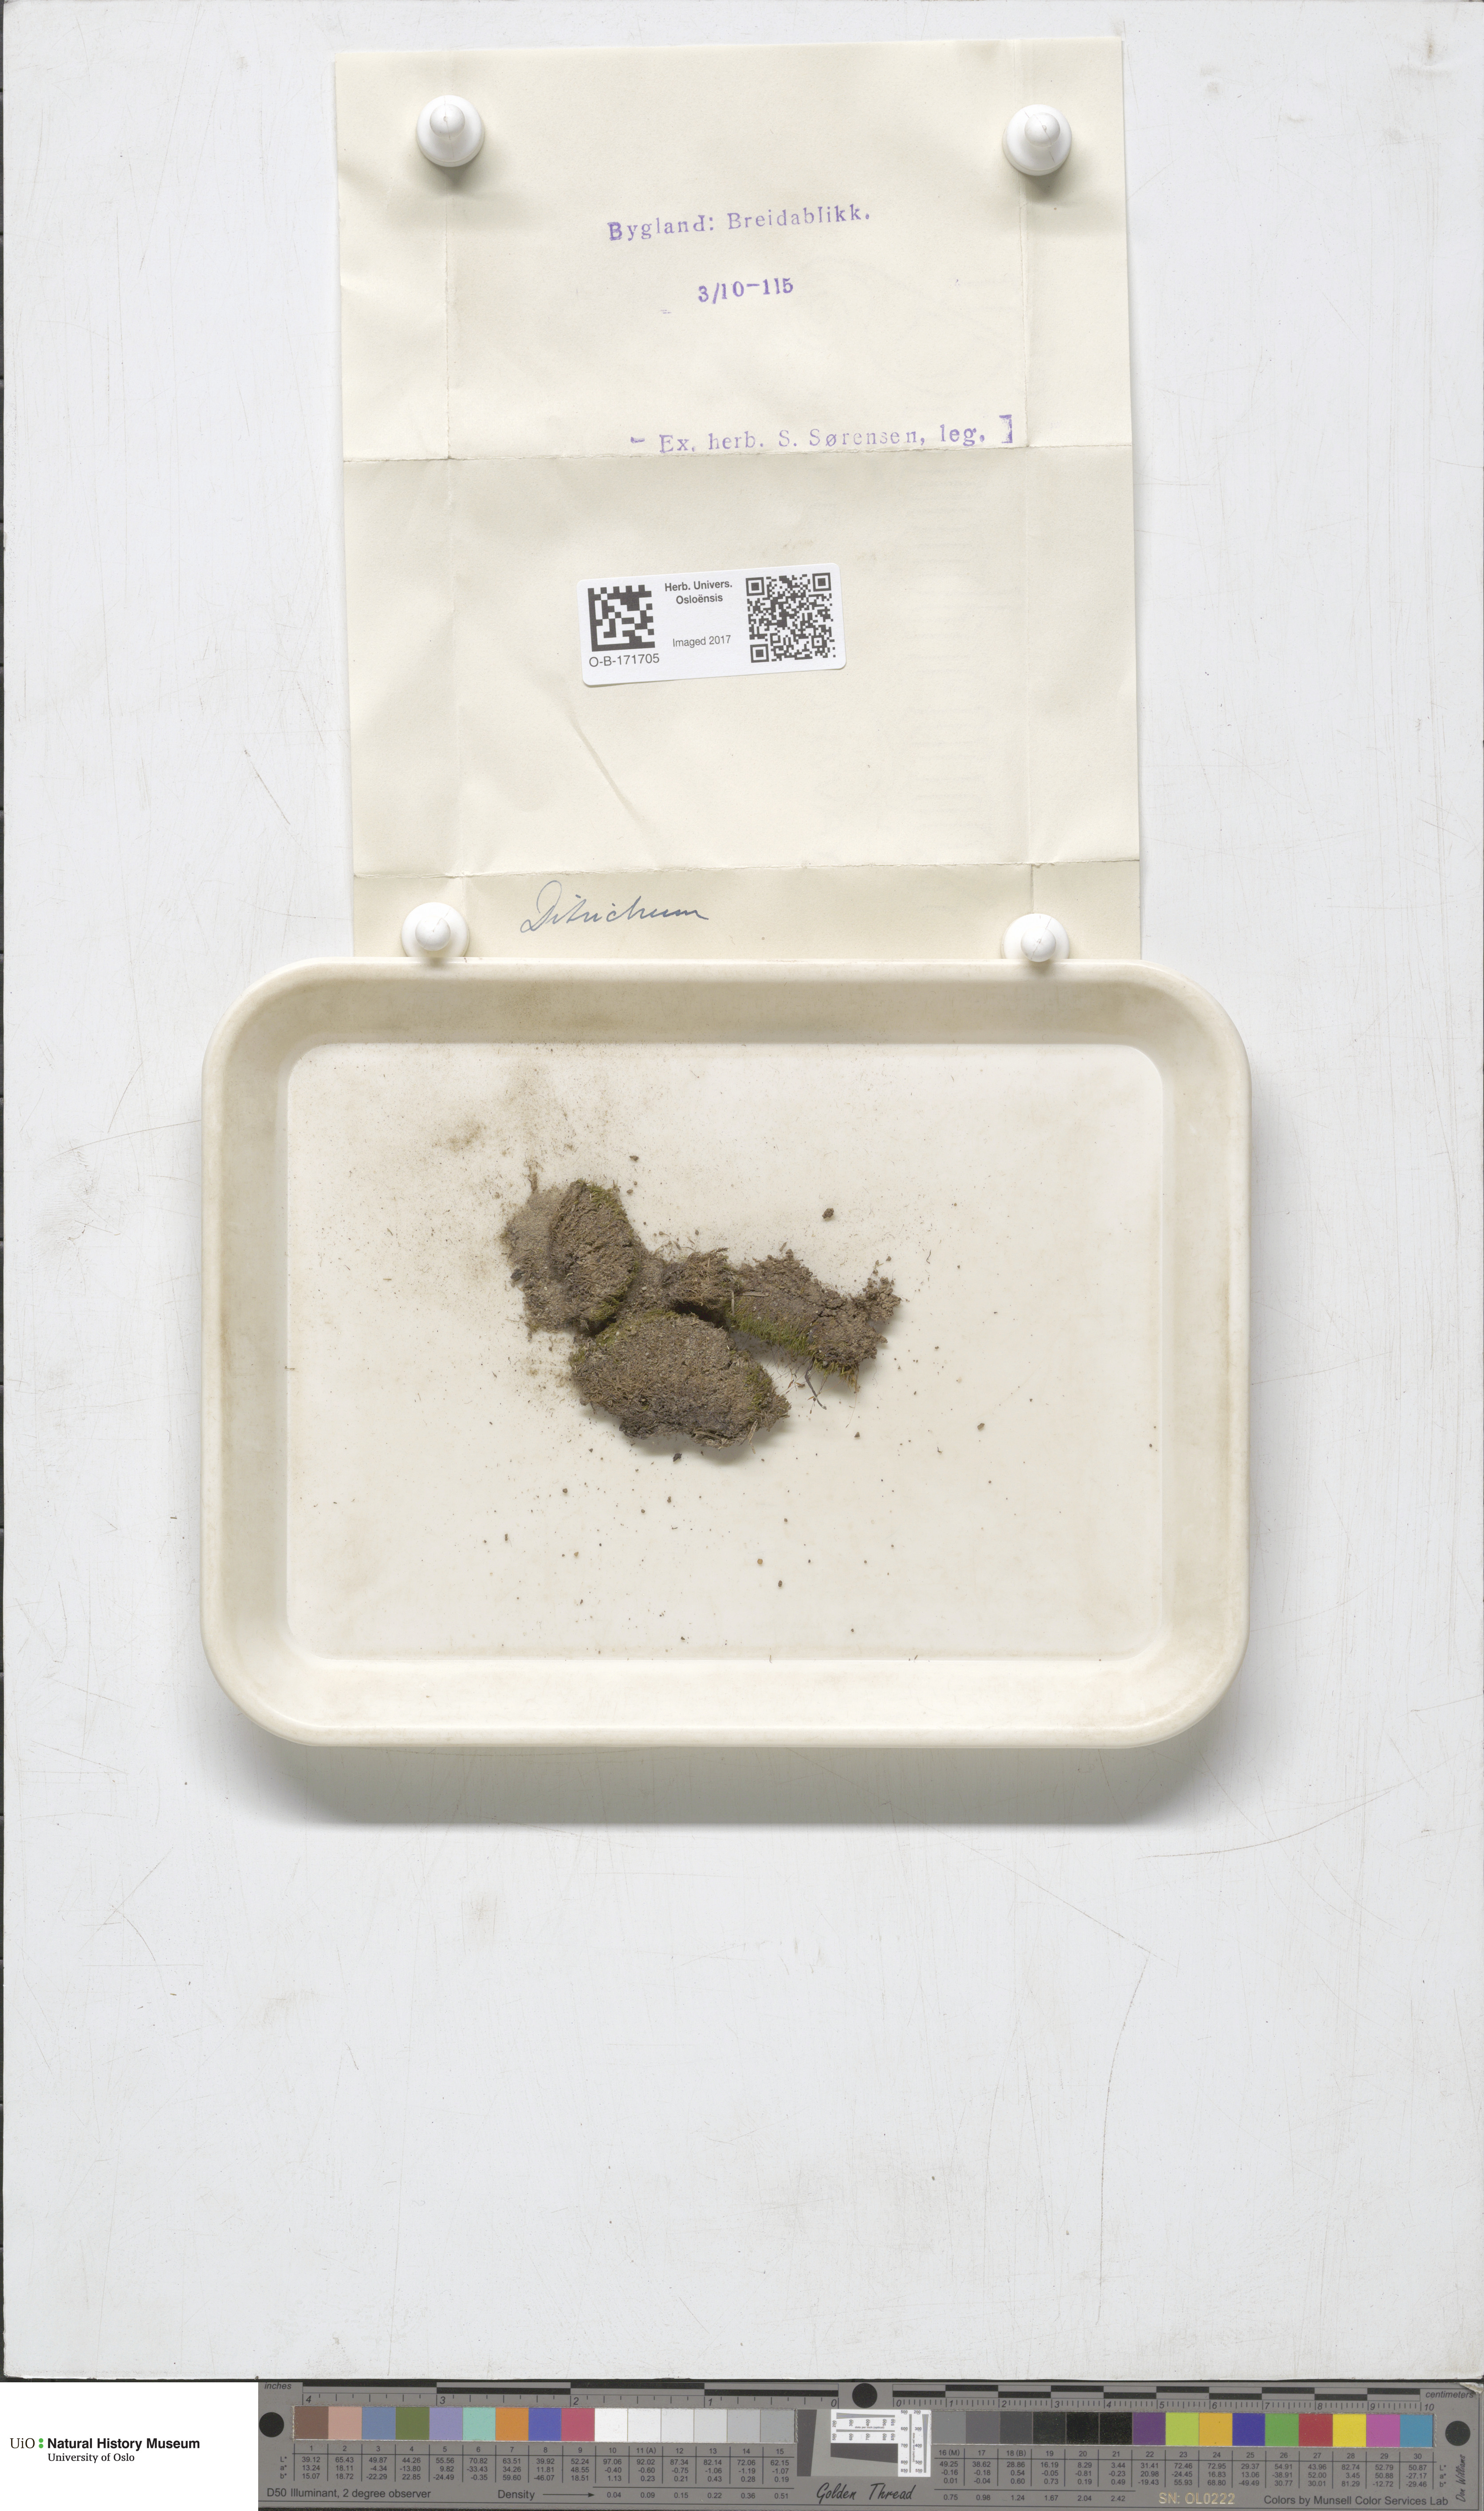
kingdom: Plantae
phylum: Bryophyta
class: Bryopsida
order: Dicranales
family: Ditrichaceae
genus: Ditrichum
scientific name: Ditrichum
